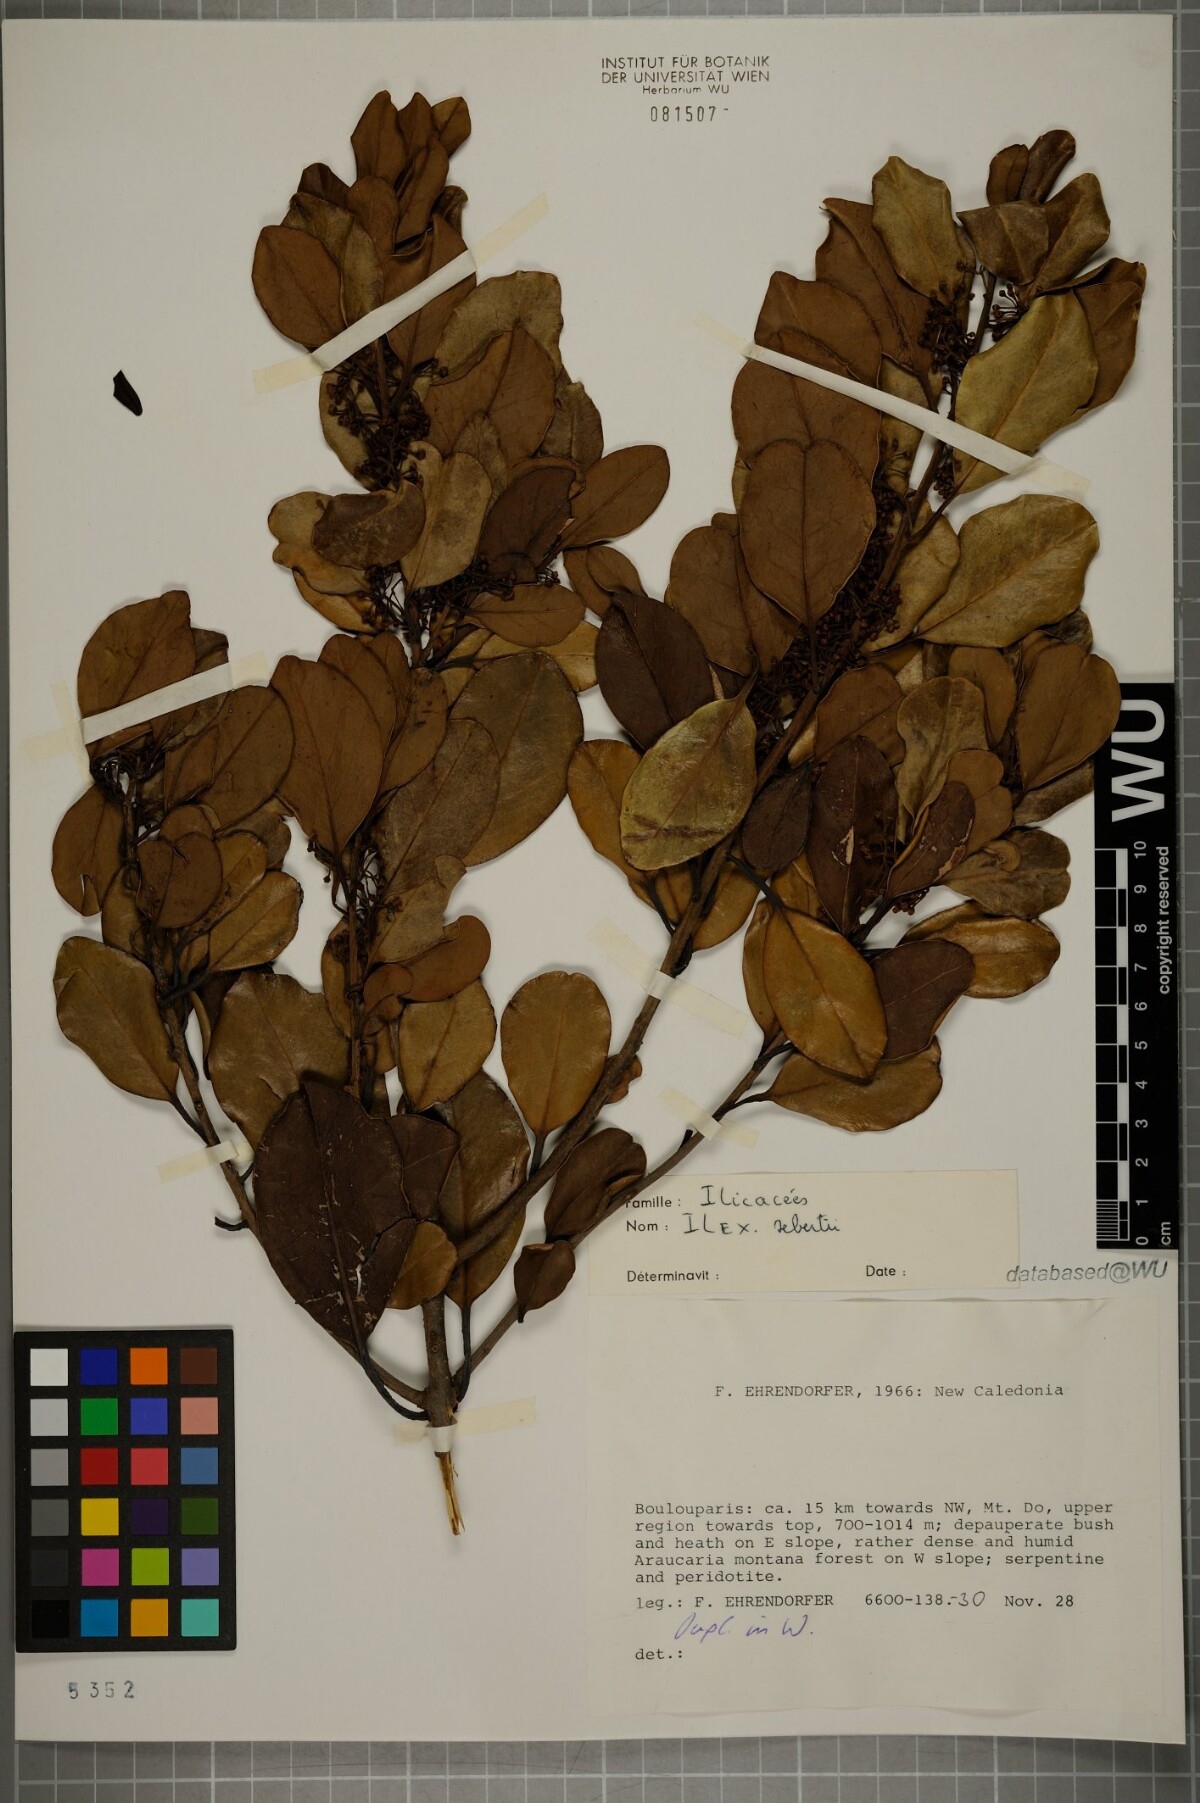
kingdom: Plantae
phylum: Tracheophyta
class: Magnoliopsida
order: Aquifoliales
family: Aquifoliaceae
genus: Ilex
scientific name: Ilex sebertii
